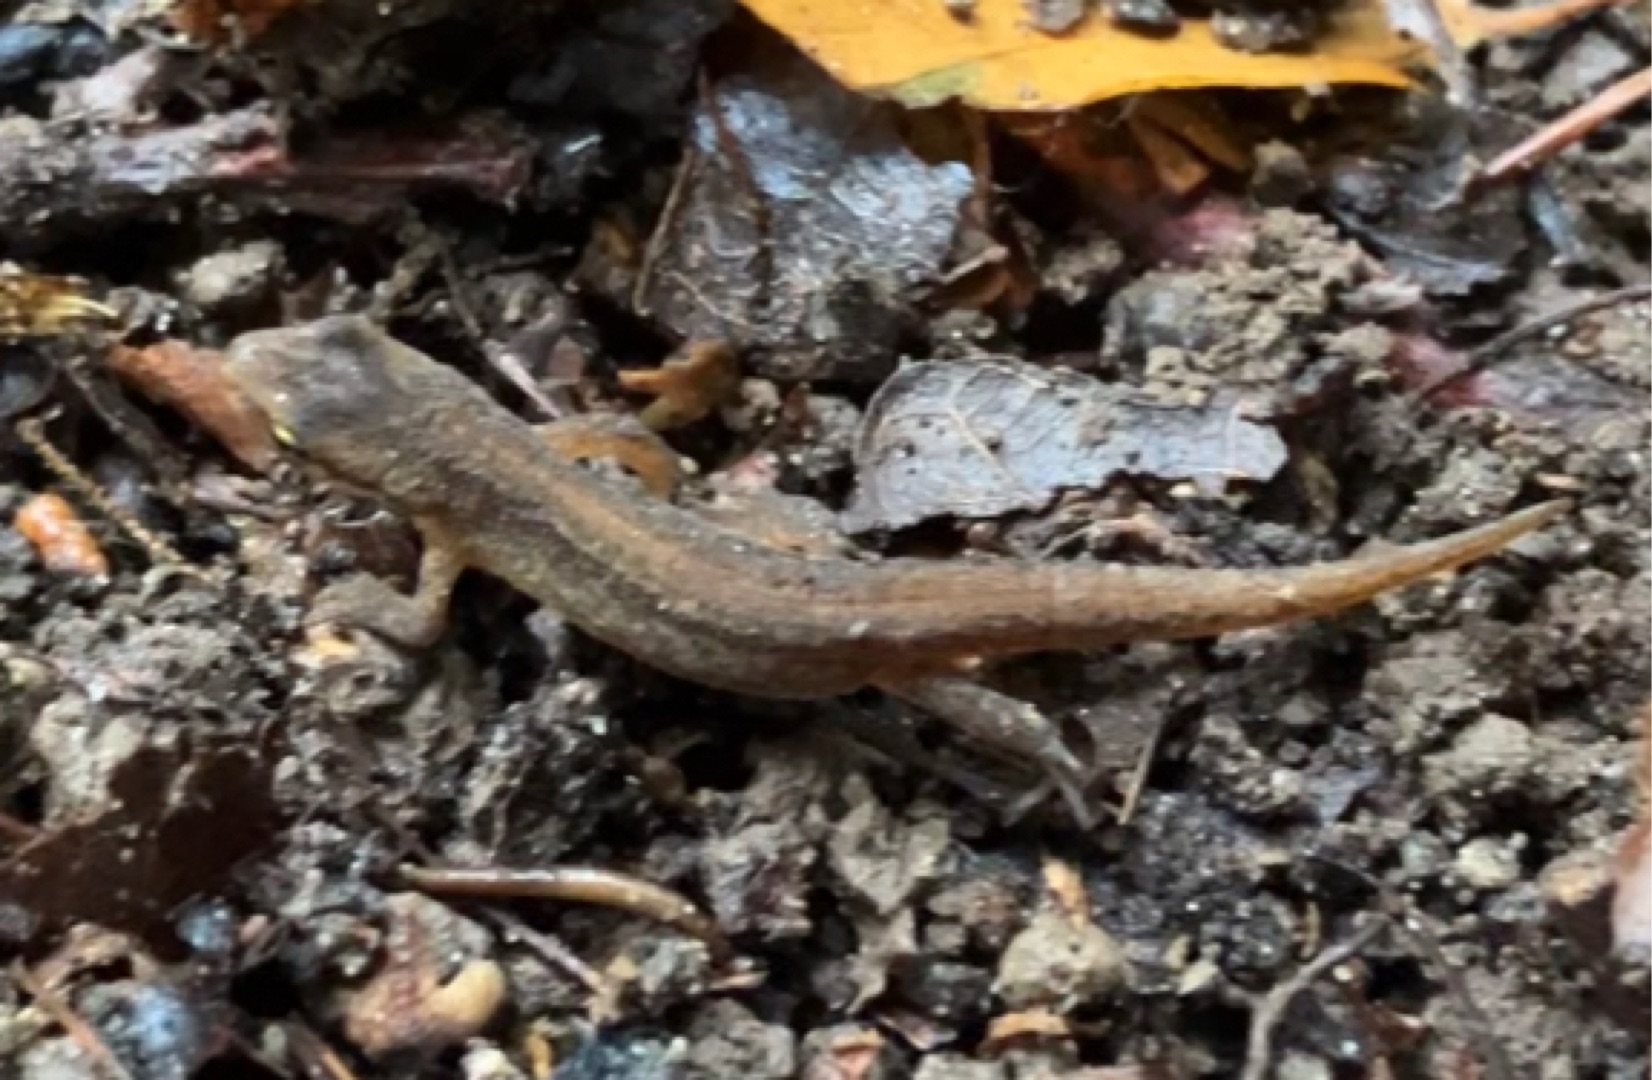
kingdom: Animalia
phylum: Chordata
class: Amphibia
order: Caudata
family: Salamandridae
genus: Lissotriton
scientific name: Lissotriton vulgaris
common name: Lille vandsalamander
